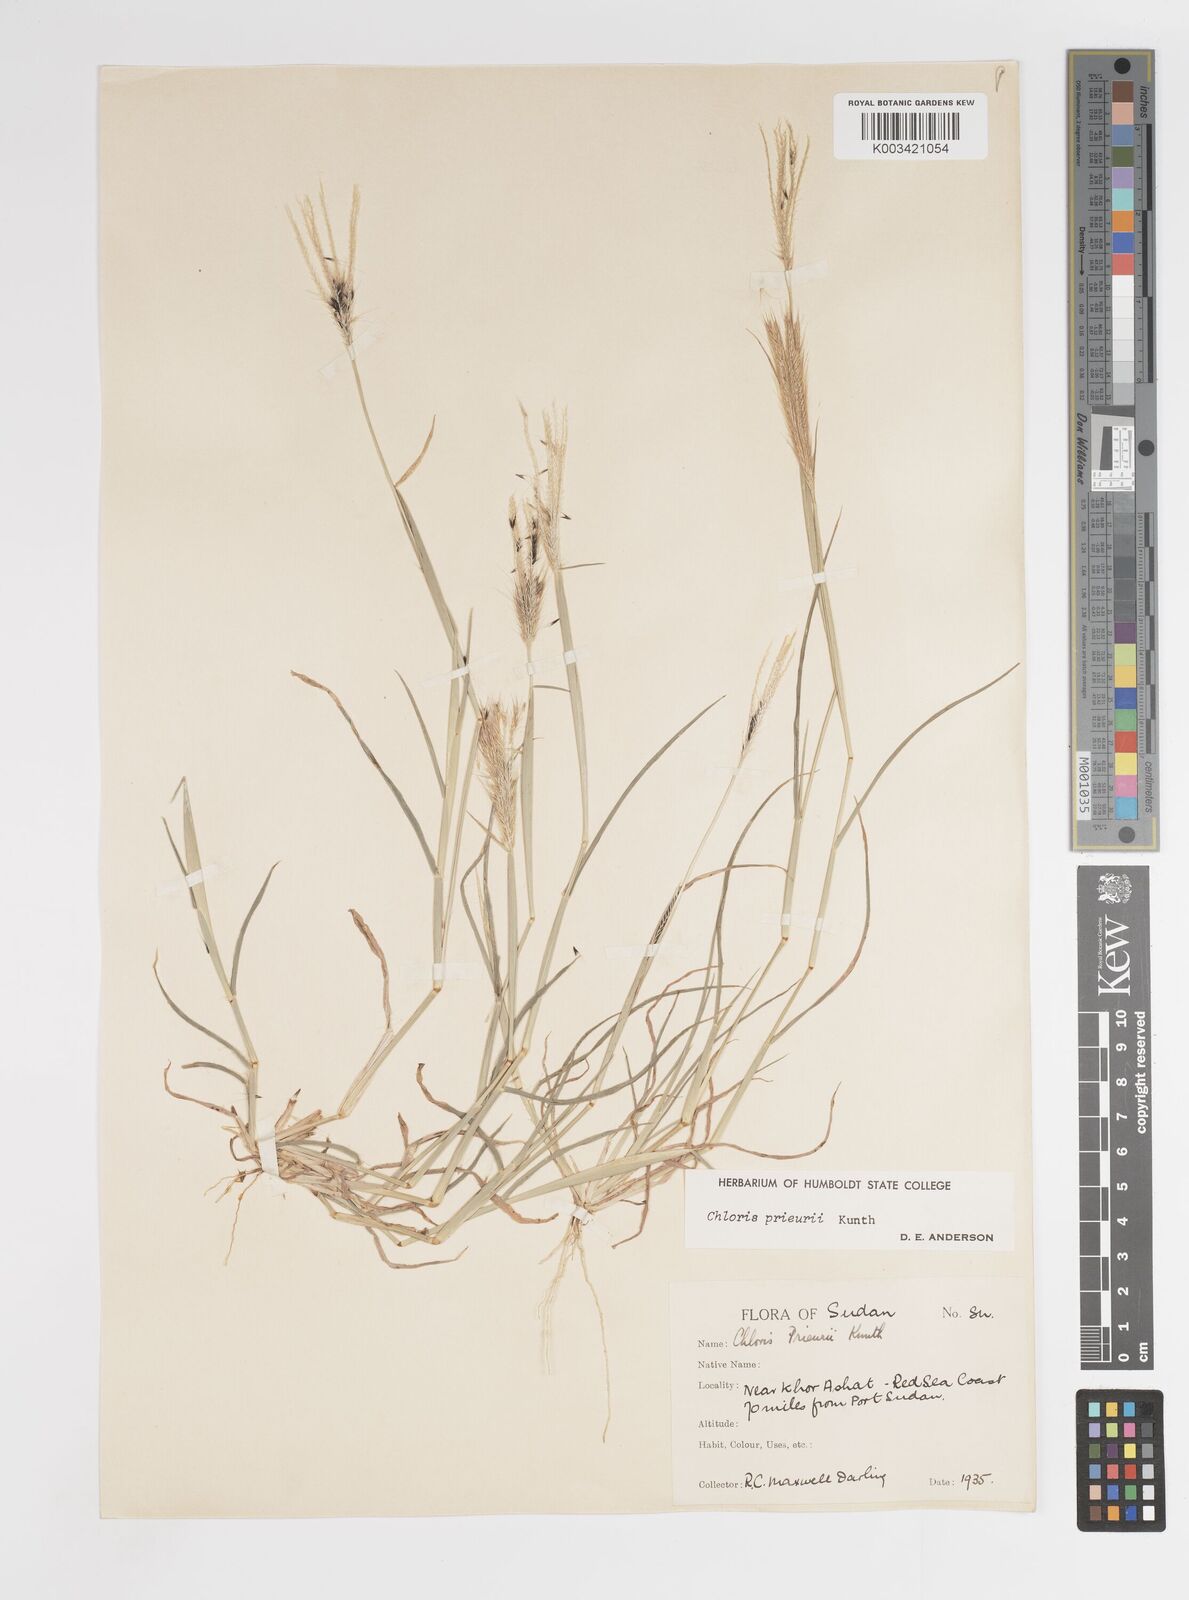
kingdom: Plantae
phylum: Tracheophyta
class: Liliopsida
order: Poales
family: Poaceae
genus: Enteropogon
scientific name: Enteropogon prieurii
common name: Prieur's umbrellagrass
